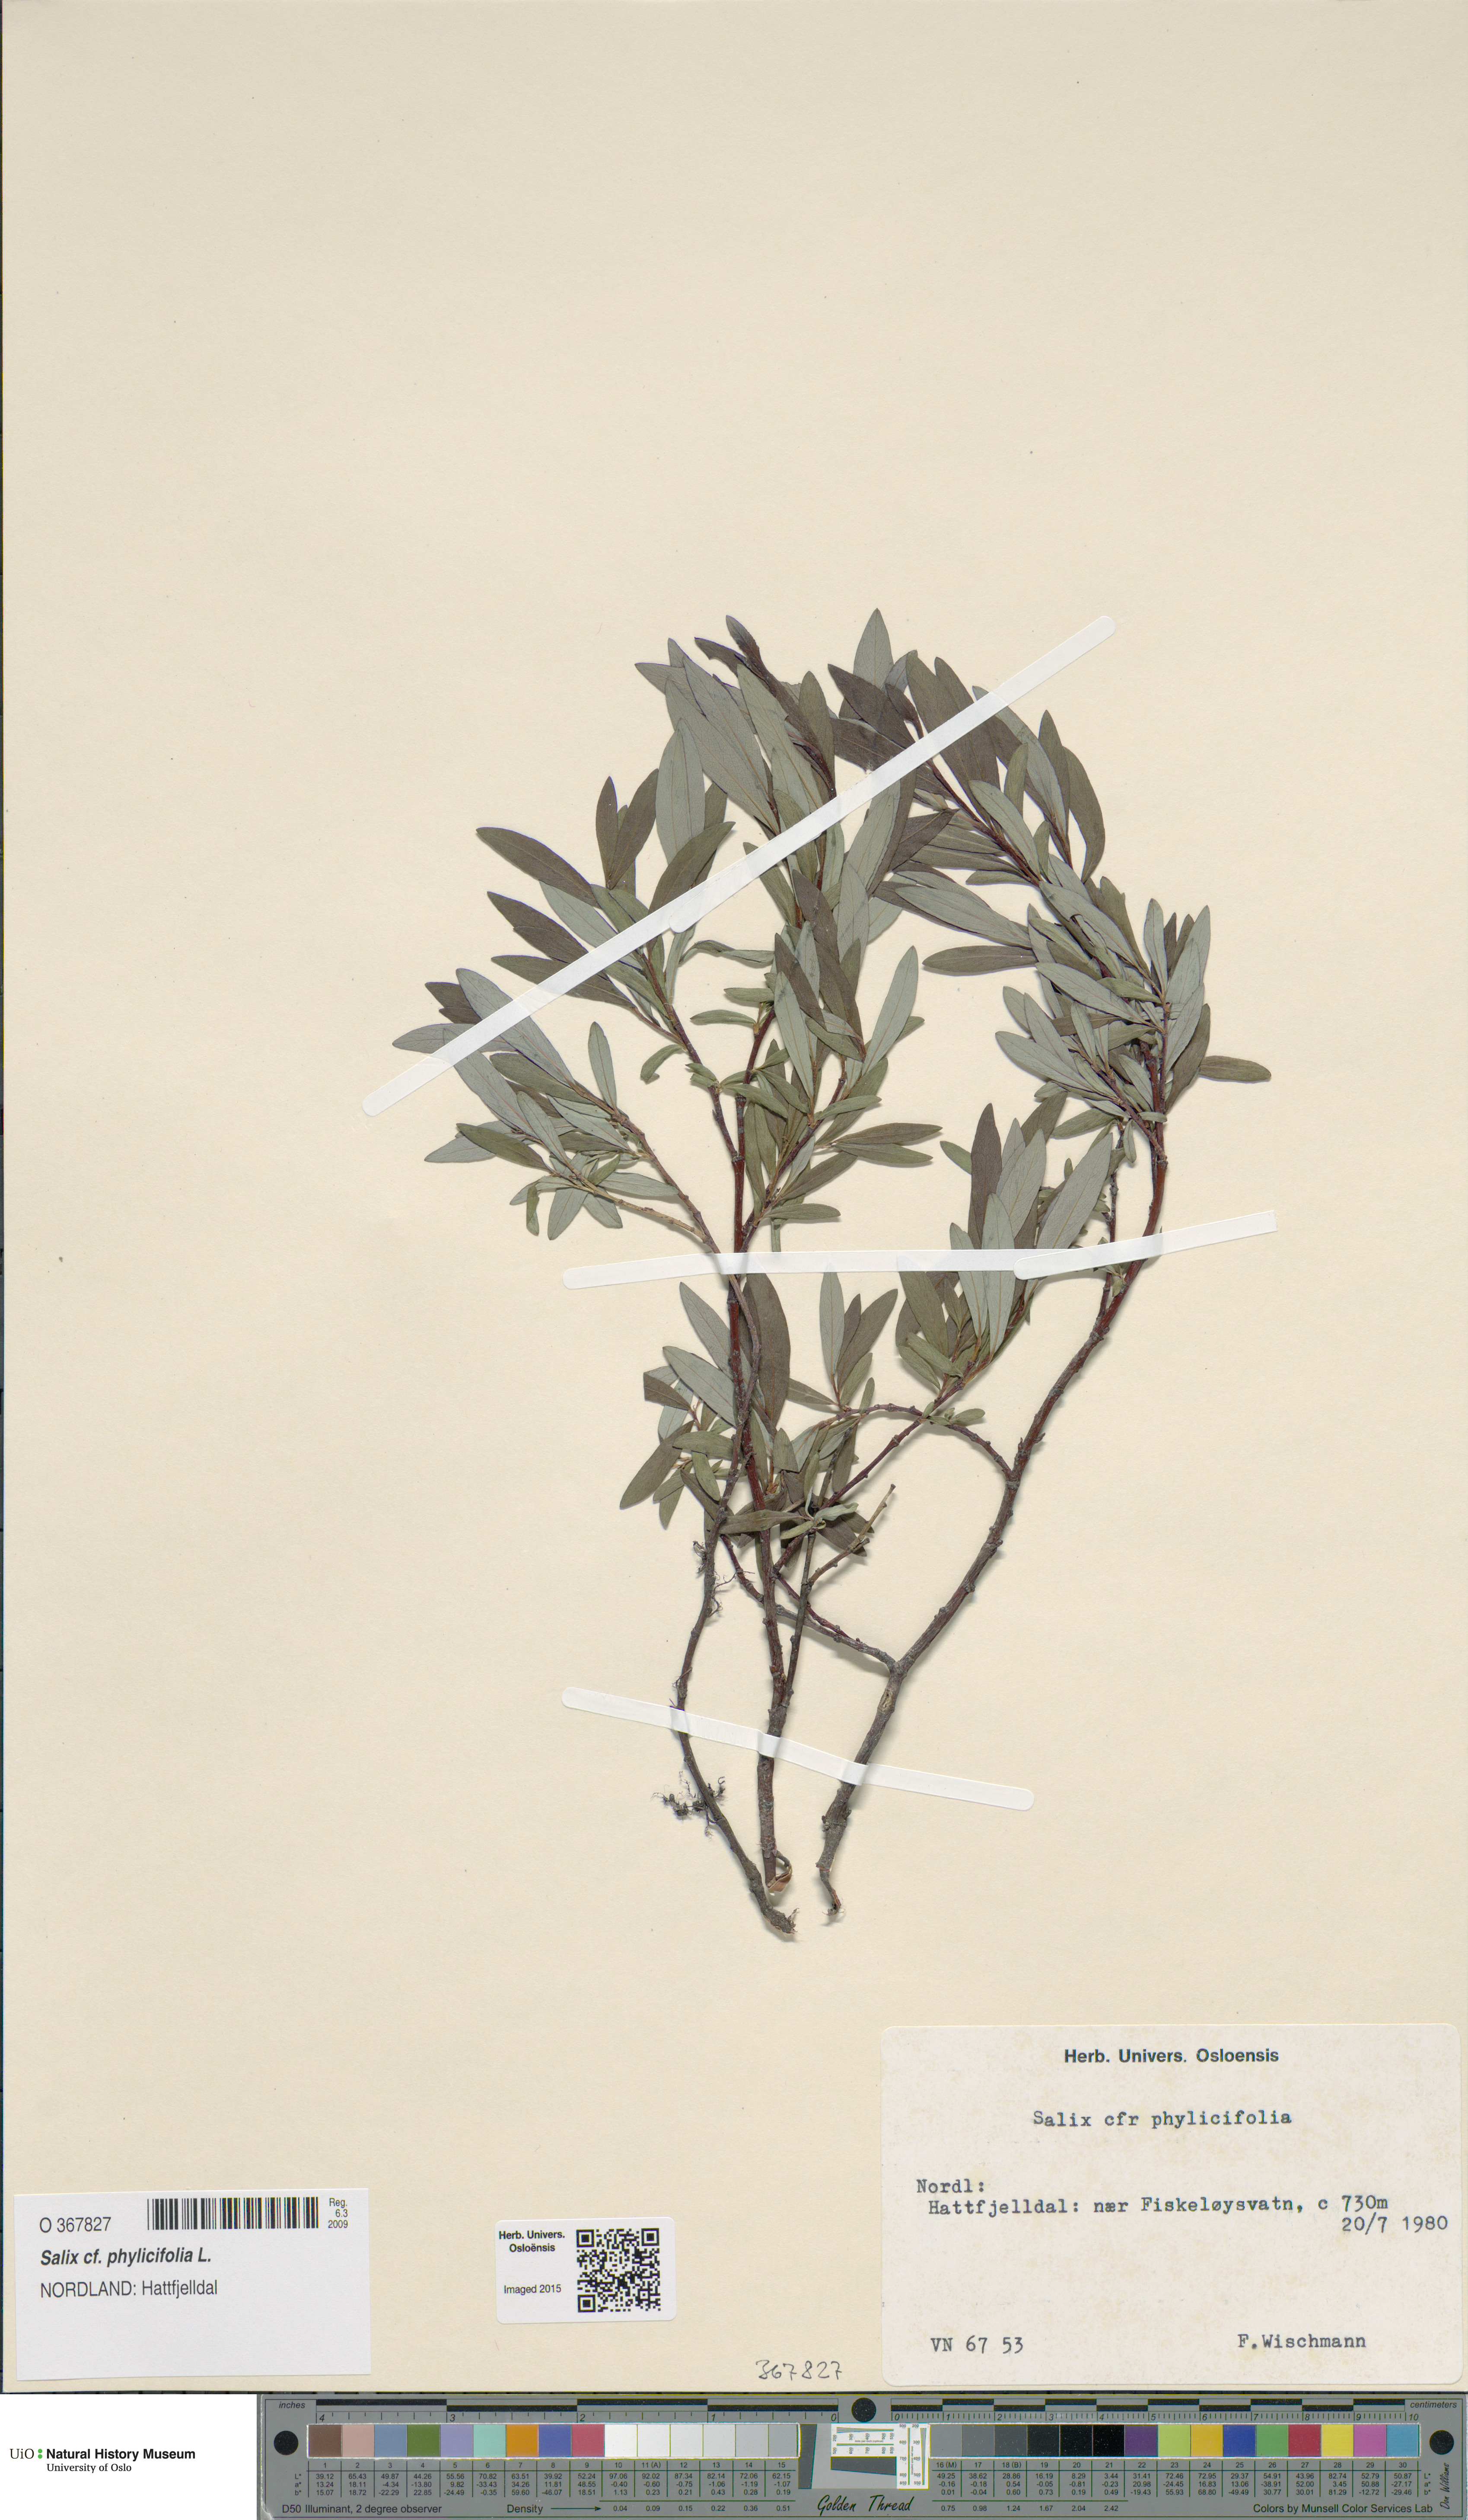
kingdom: Plantae
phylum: Tracheophyta
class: Magnoliopsida
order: Malpighiales
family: Salicaceae
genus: Salix
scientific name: Salix phylicifolia
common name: Tea-leaved willow
